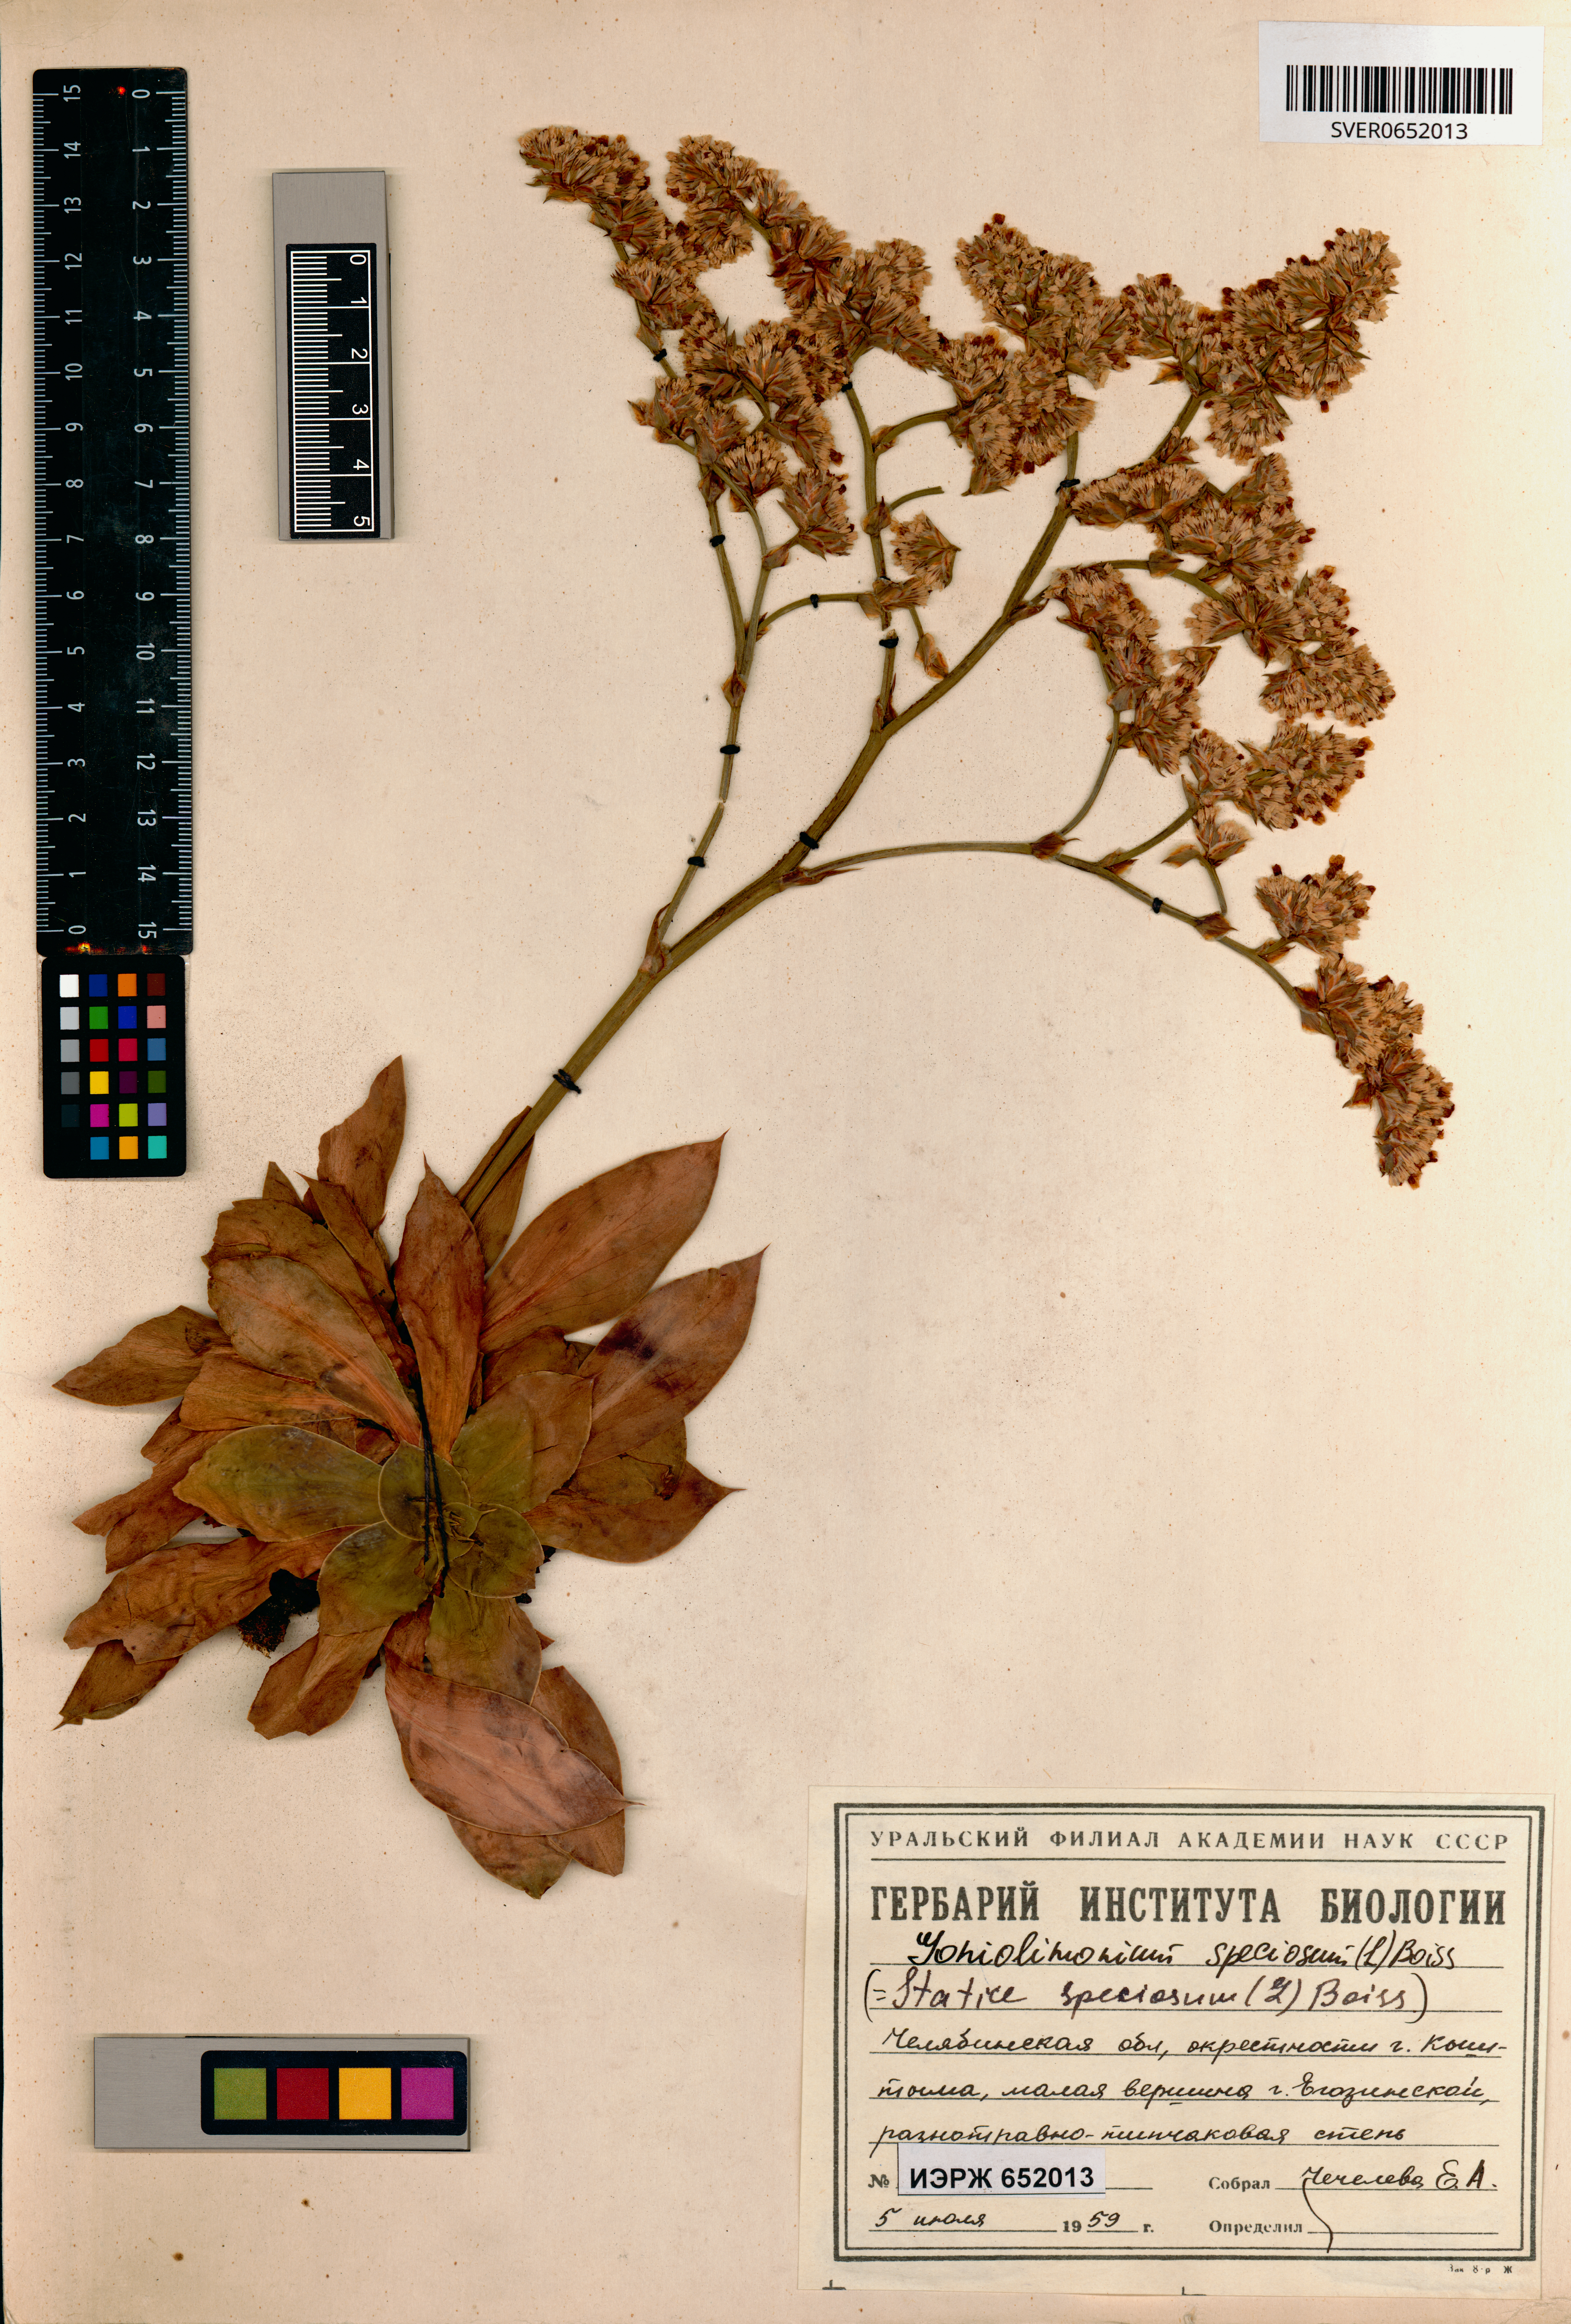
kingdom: Plantae
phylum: Tracheophyta
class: Magnoliopsida
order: Caryophyllales
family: Plumbaginaceae
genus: Goniolimon
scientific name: Goniolimon speciosum
